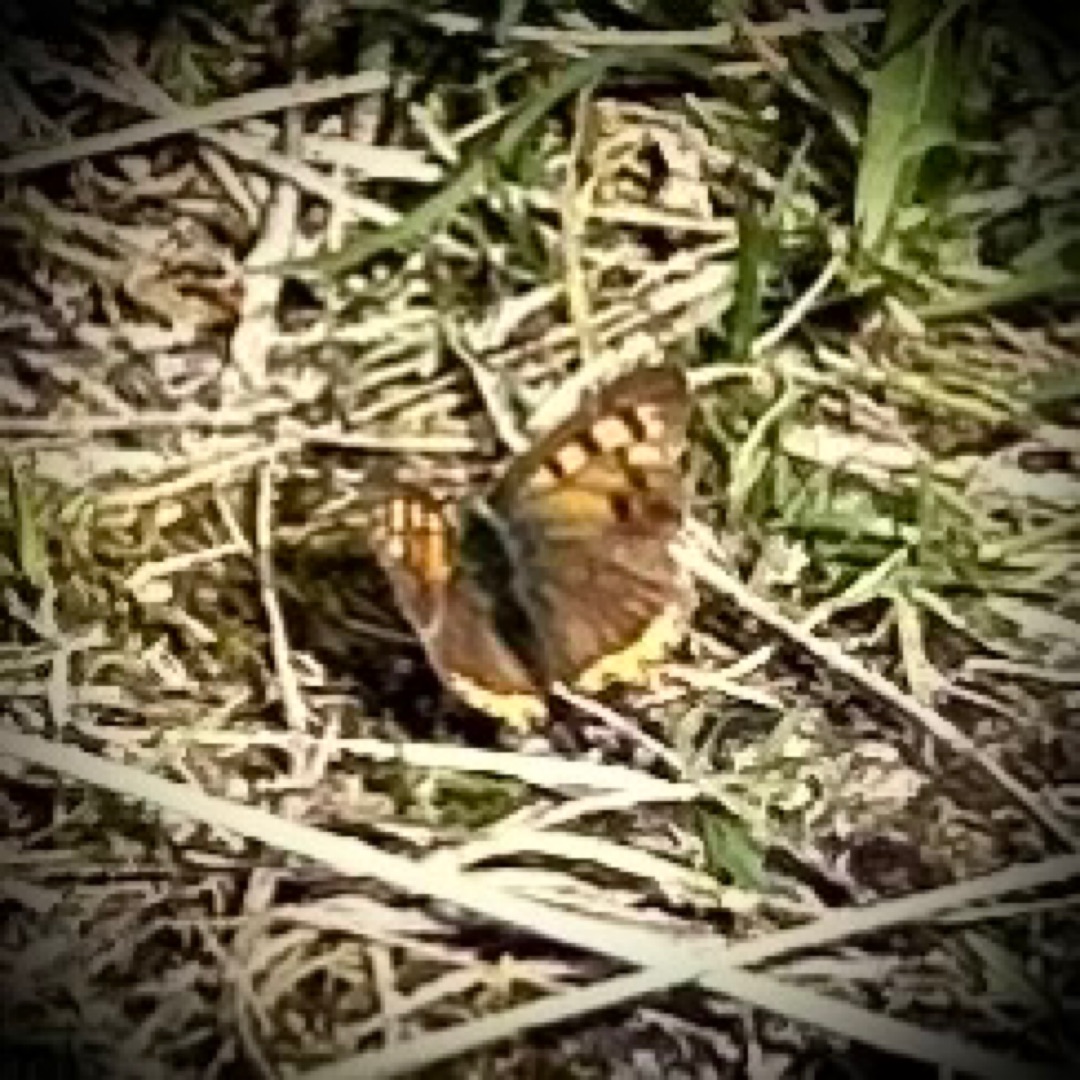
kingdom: Animalia
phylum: Arthropoda
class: Insecta
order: Lepidoptera
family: Lycaenidae
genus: Lycaena
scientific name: Lycaena phlaeas
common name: Lille ildfugl
